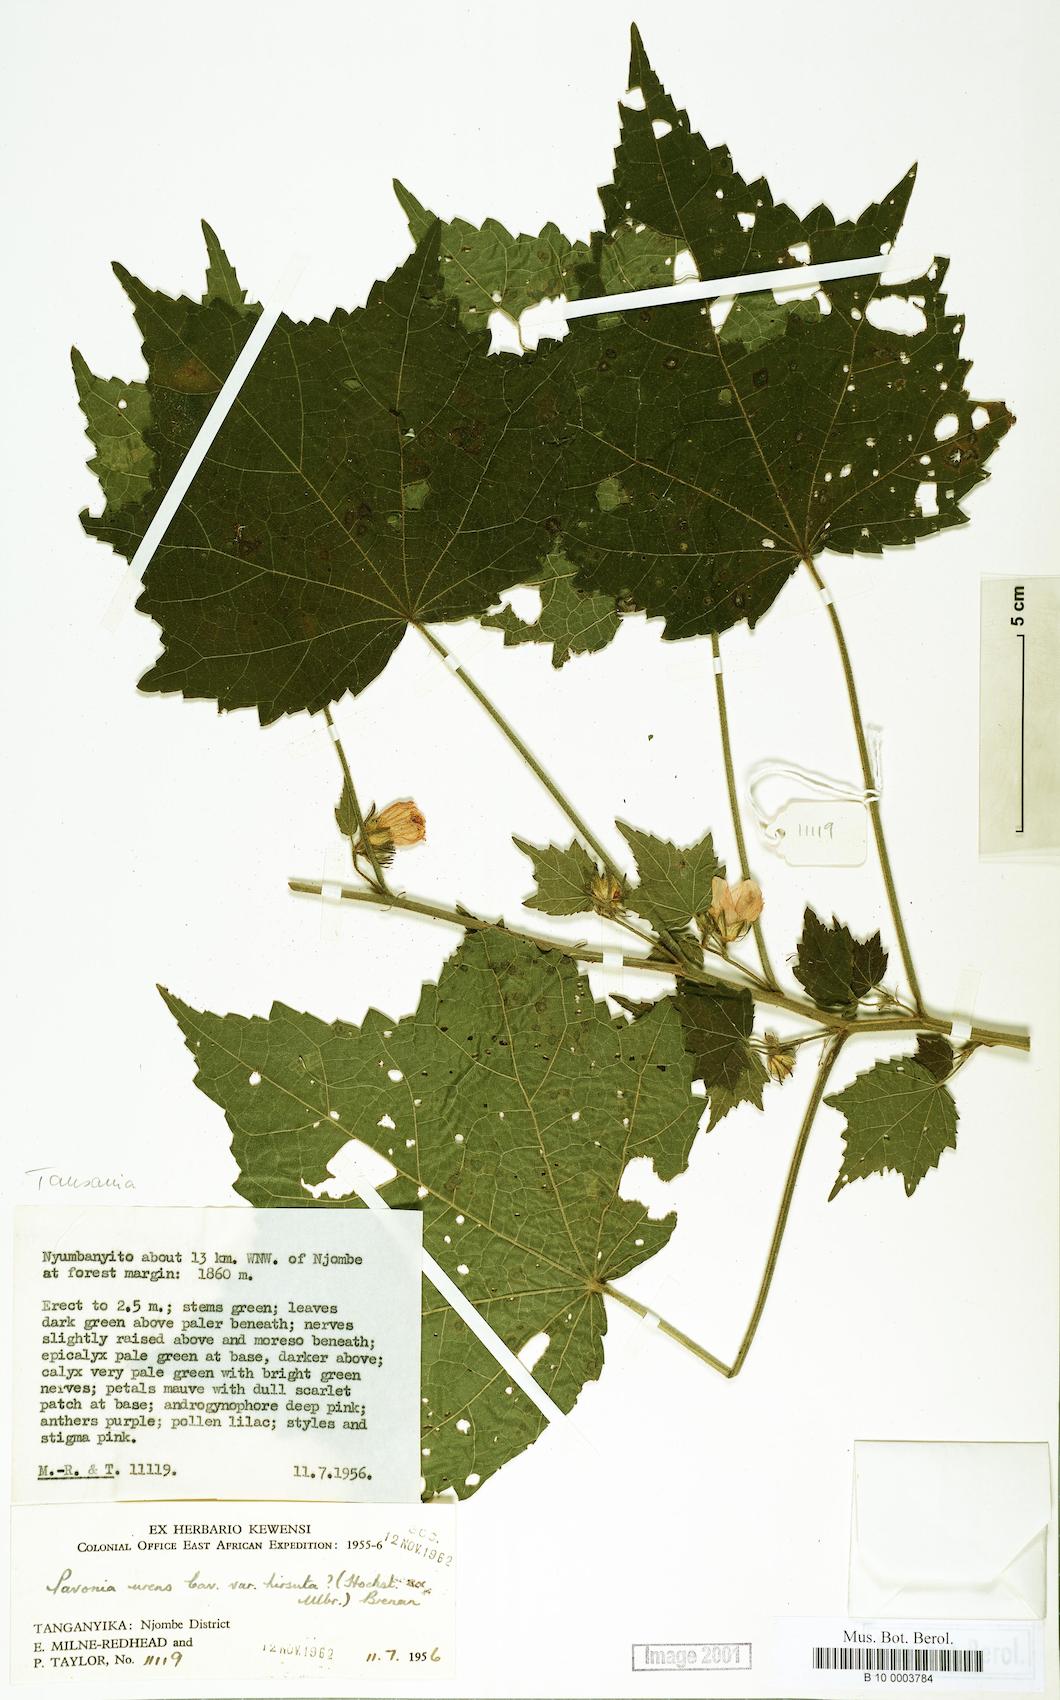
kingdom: Plantae
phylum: Tracheophyta
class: Magnoliopsida
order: Malvales
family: Malvaceae
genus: Pavonia
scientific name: Pavonia urens
